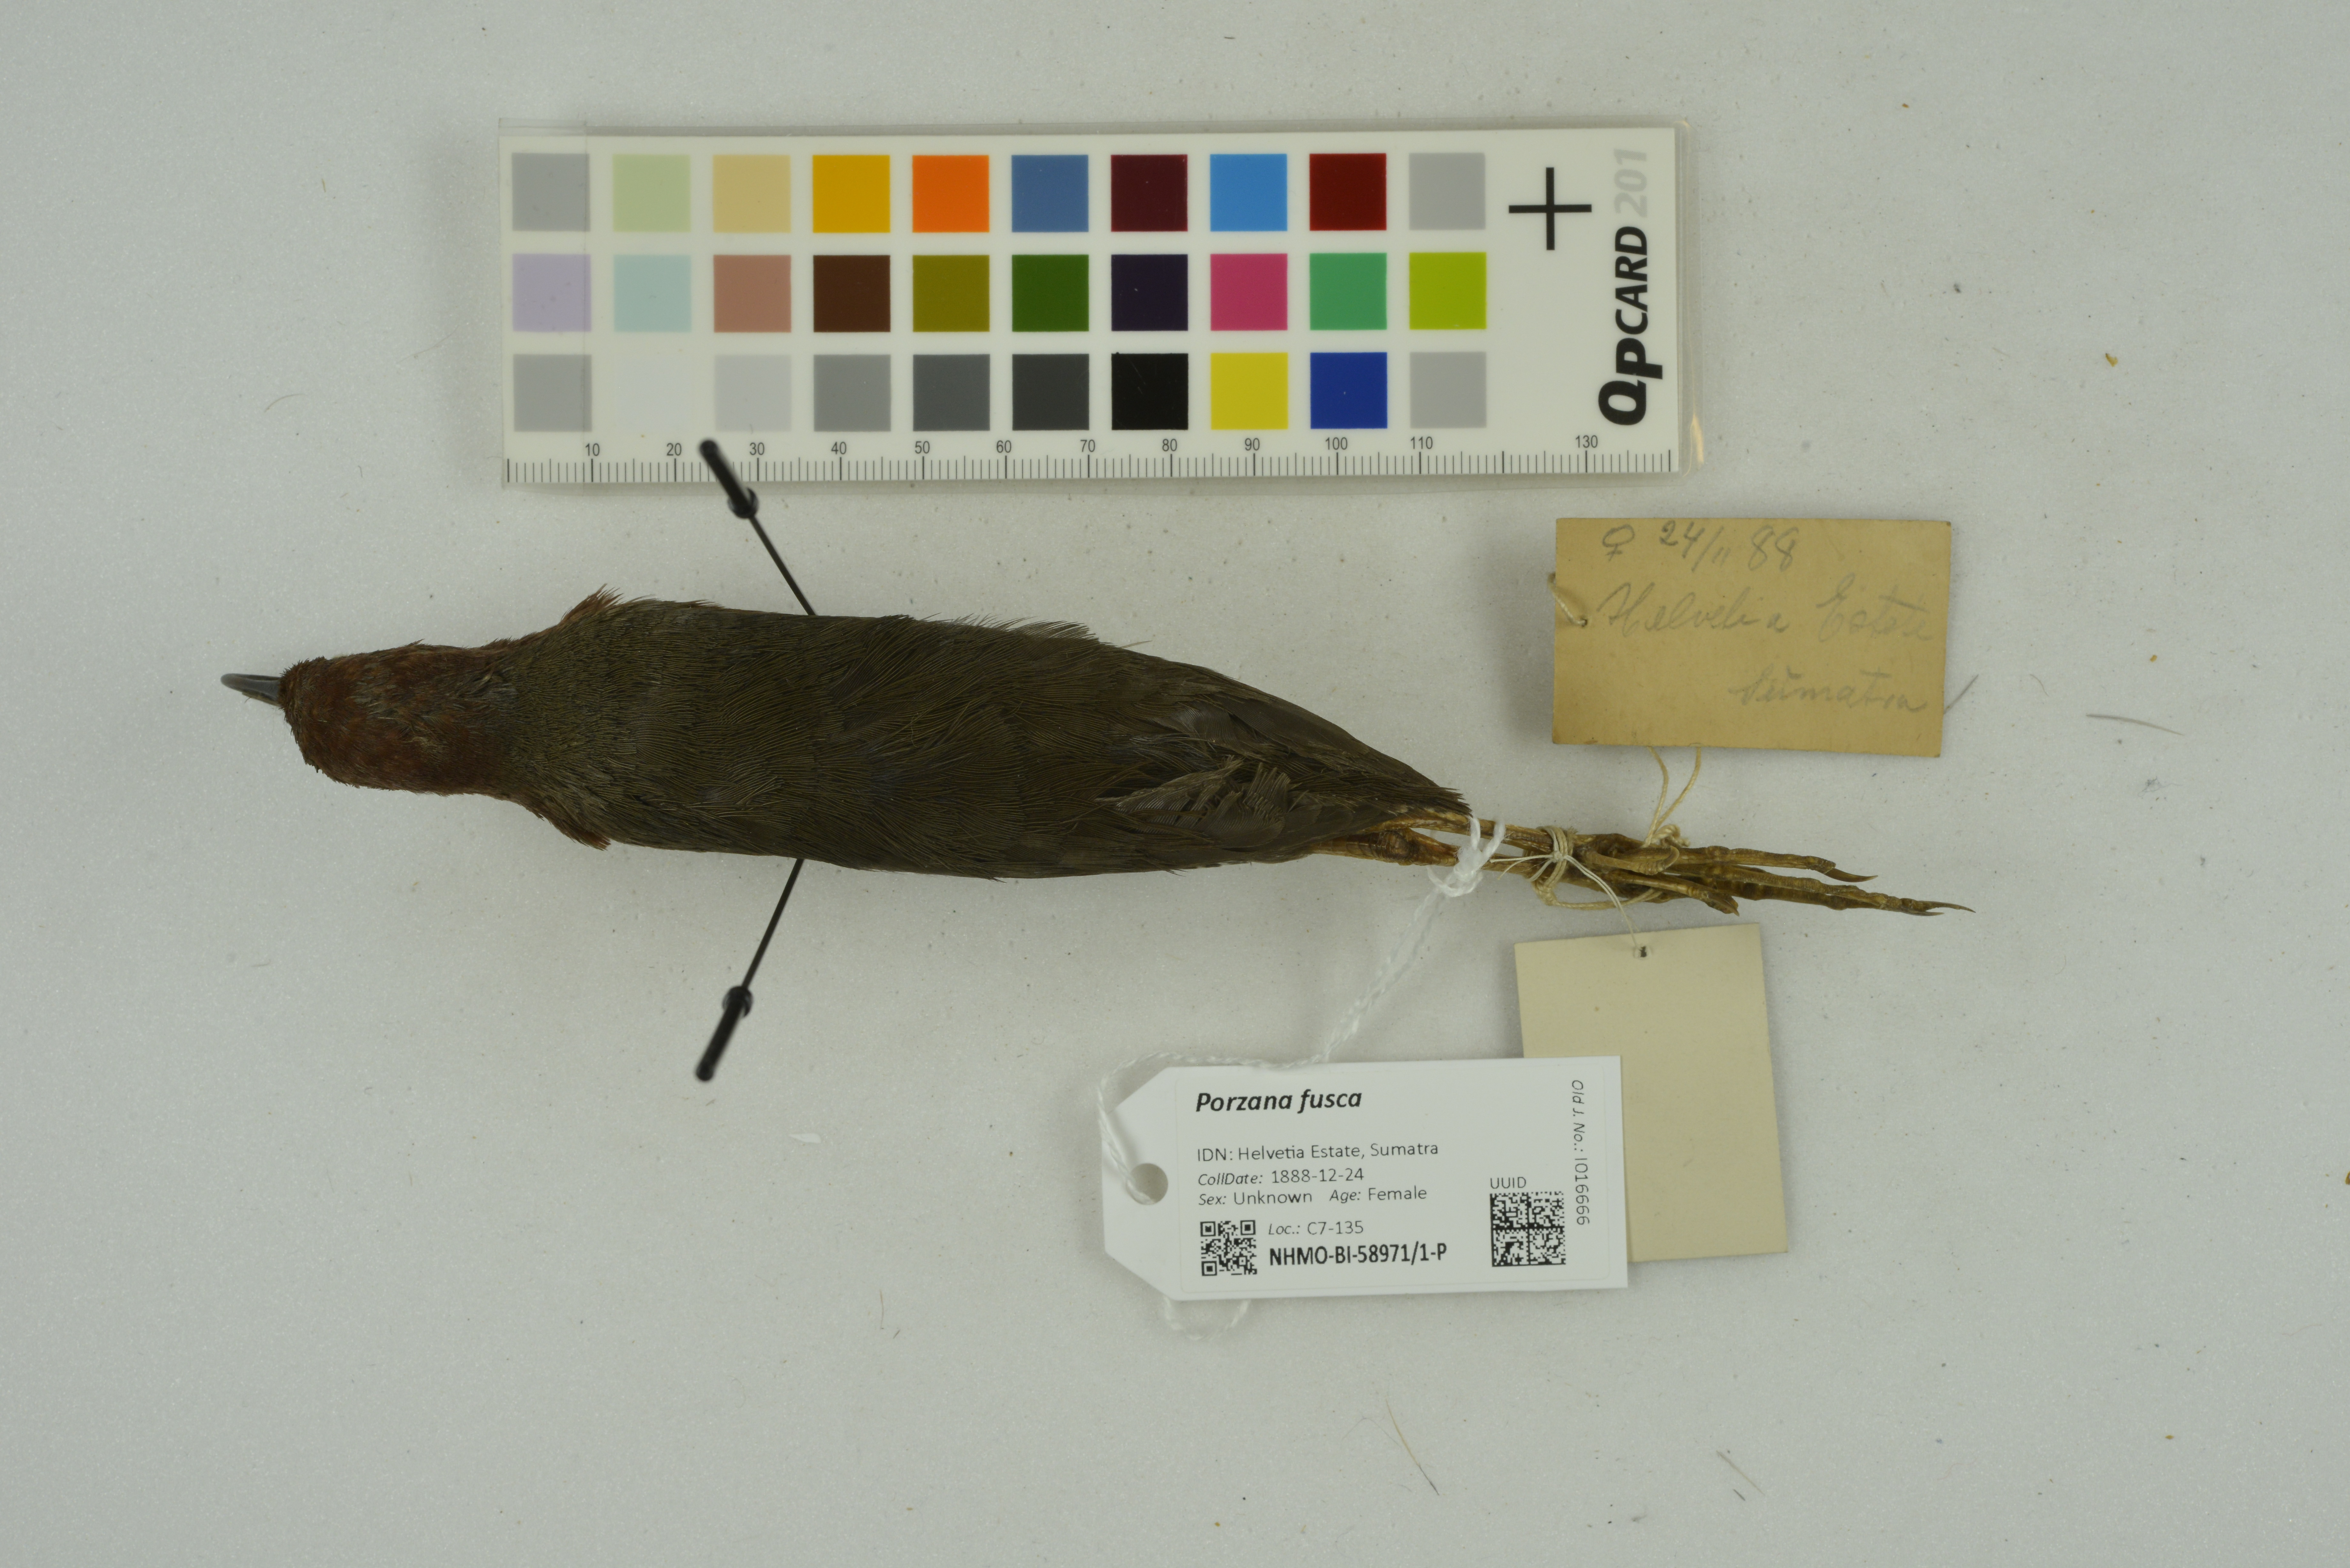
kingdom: Animalia
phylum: Chordata
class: Aves
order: Gruiformes
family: Rallidae
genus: Porzana
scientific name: Porzana fusca
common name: Ruddy-breasted crake
